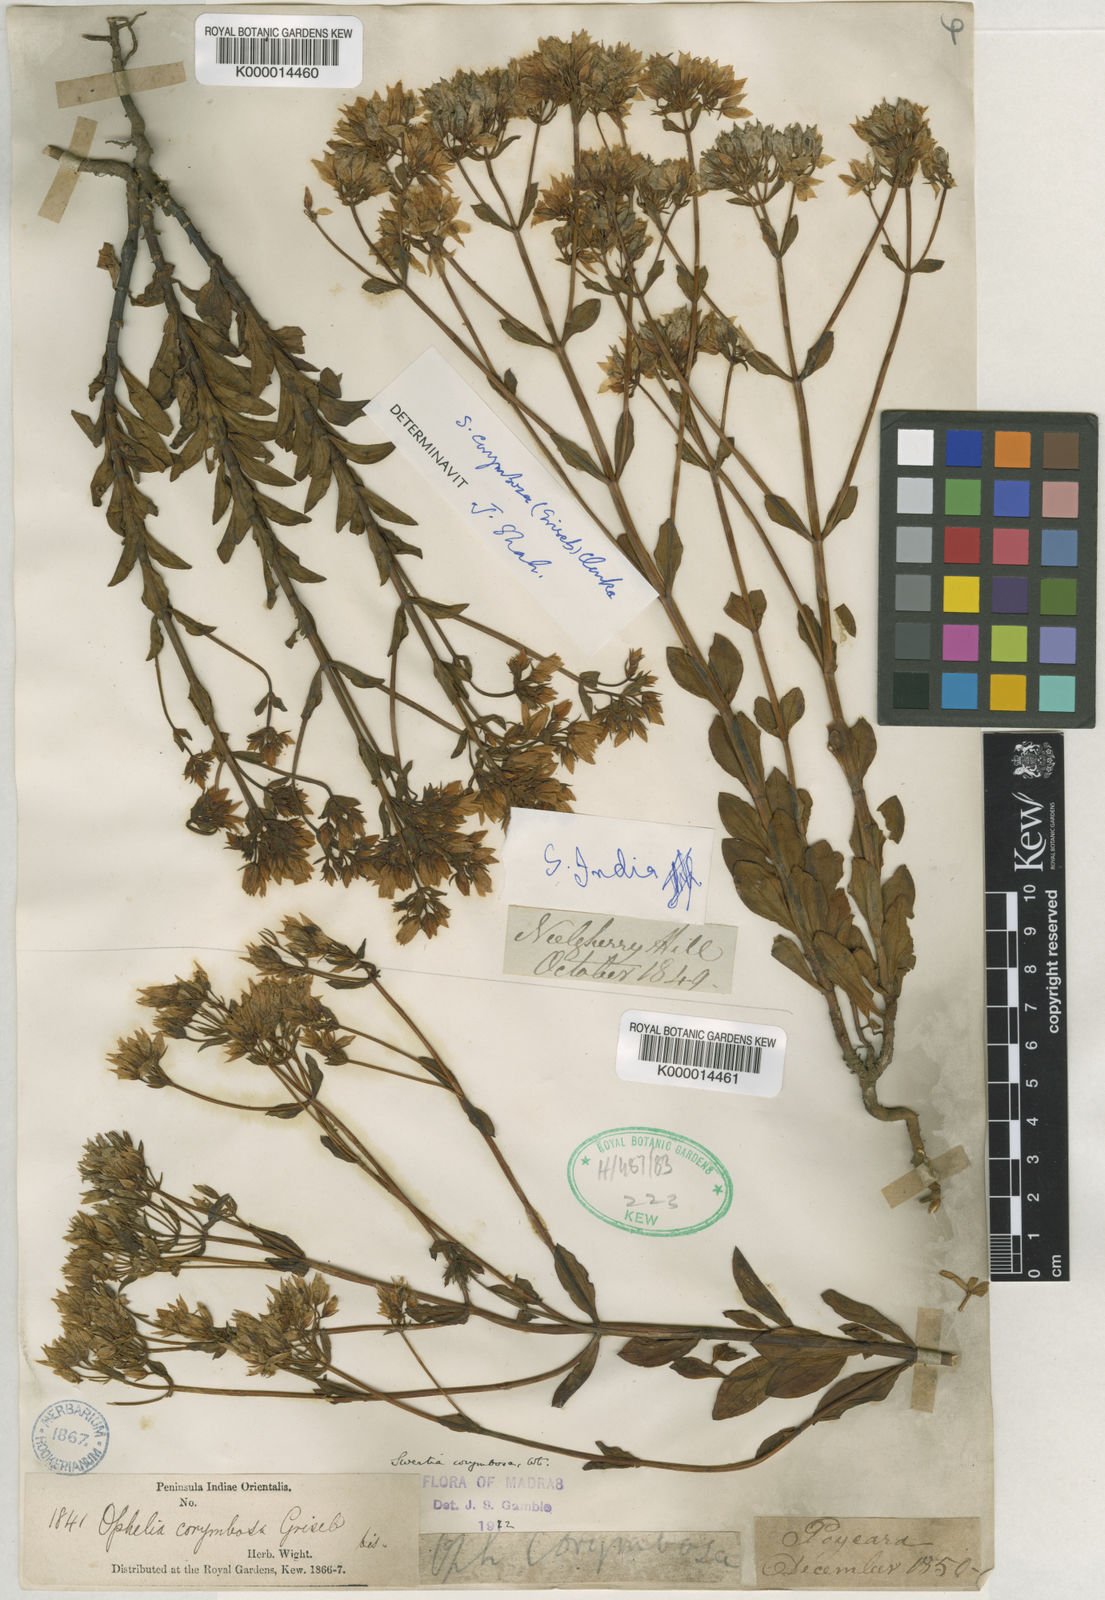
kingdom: Plantae
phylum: Tracheophyta
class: Magnoliopsida
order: Gentianales
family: Gentianaceae
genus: Swertia
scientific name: Swertia
